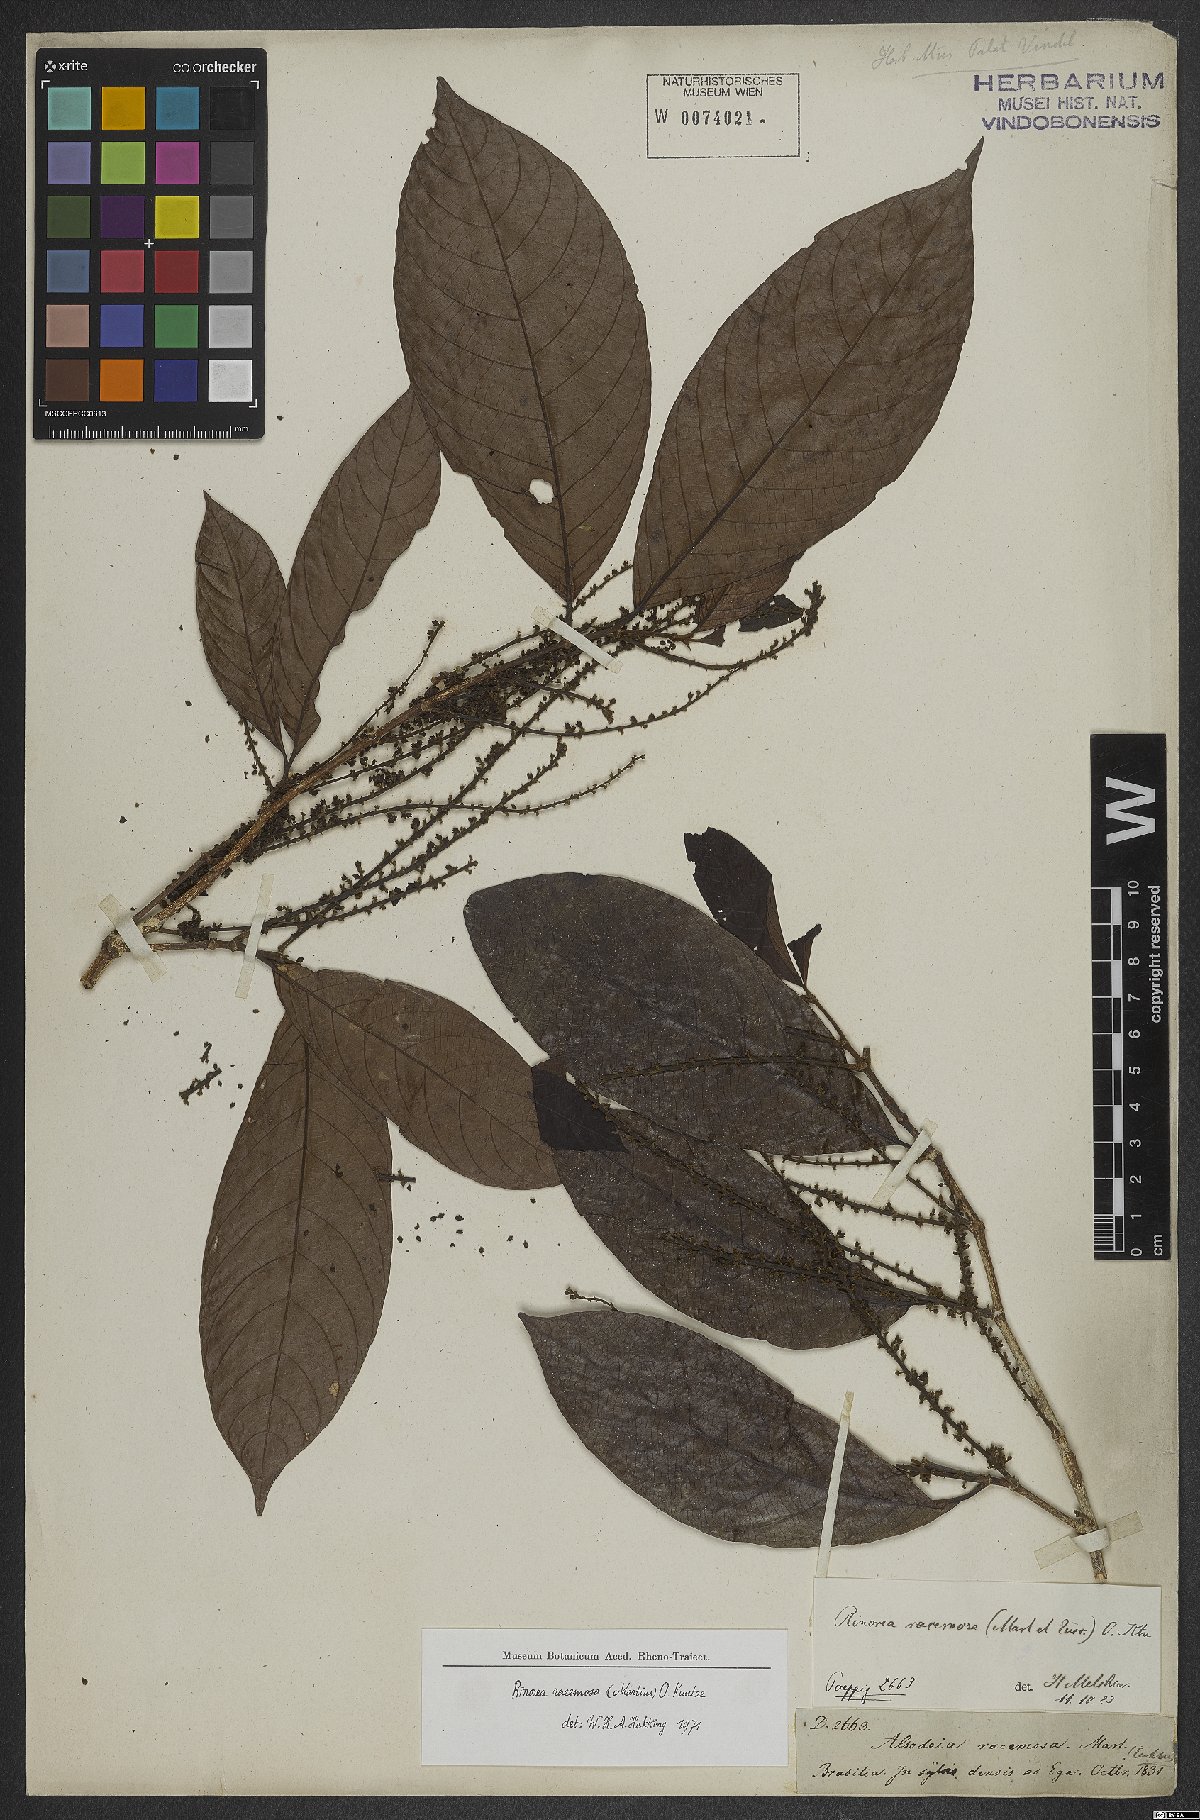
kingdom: Plantae
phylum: Tracheophyta
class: Magnoliopsida
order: Malpighiales
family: Violaceae
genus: Rinorea
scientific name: Rinorea racemosa
